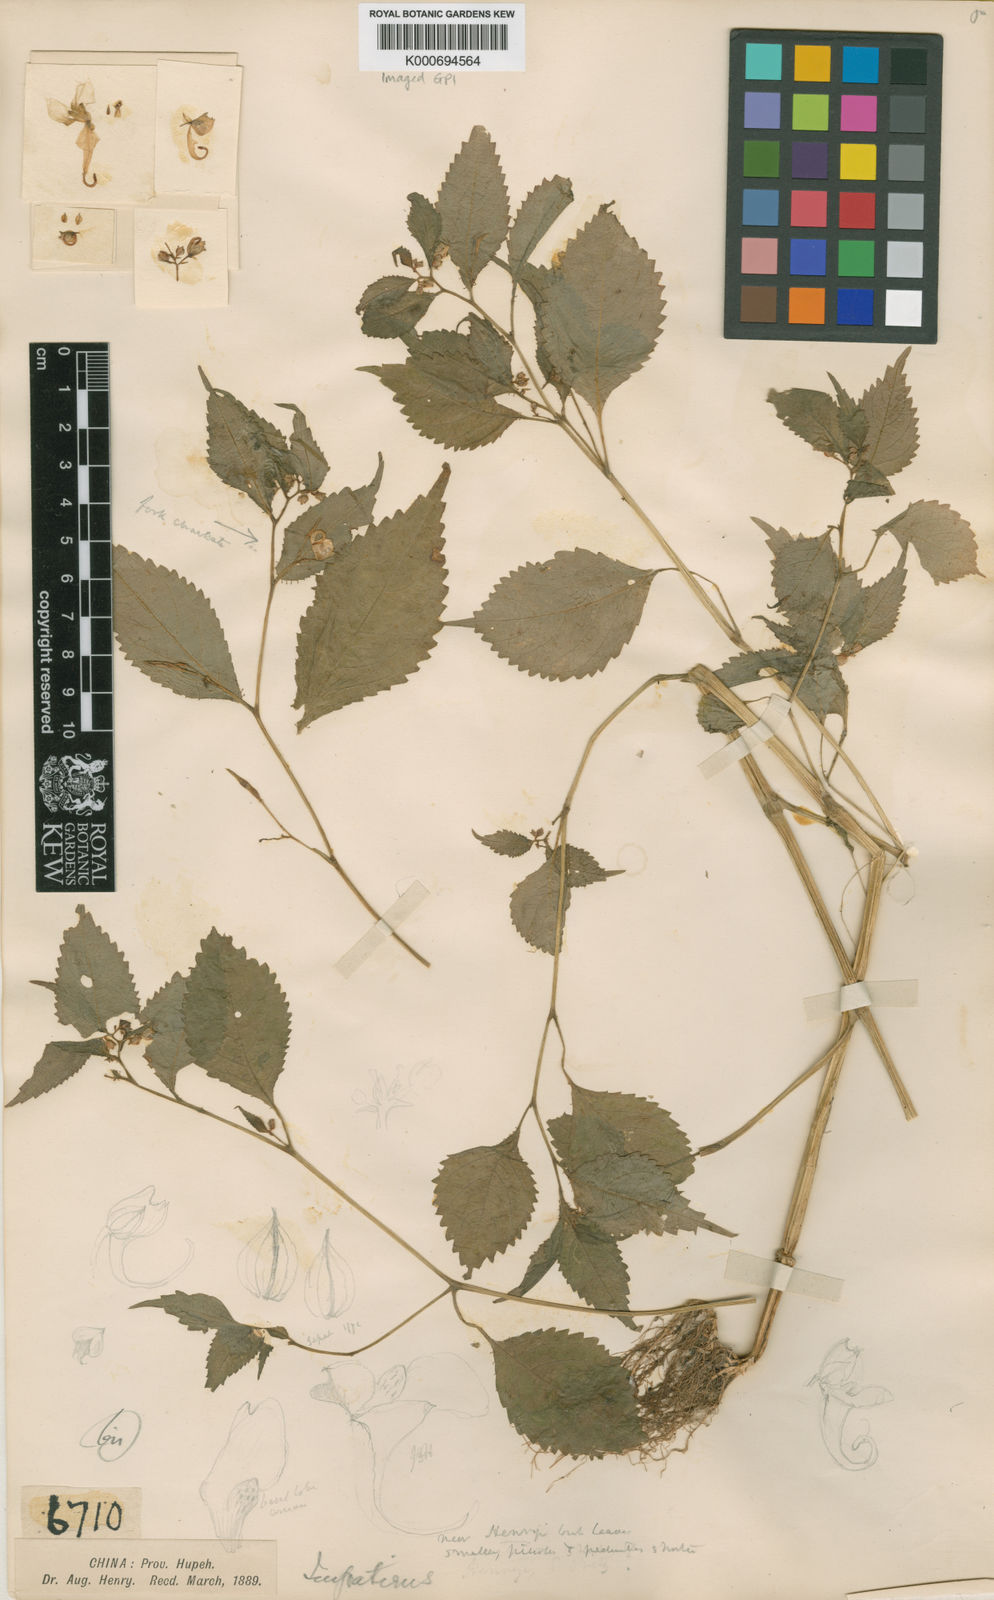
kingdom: Plantae
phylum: Tracheophyta
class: Magnoliopsida
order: Ericales
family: Balsaminaceae
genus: Impatiens
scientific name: Impatiens henryi
